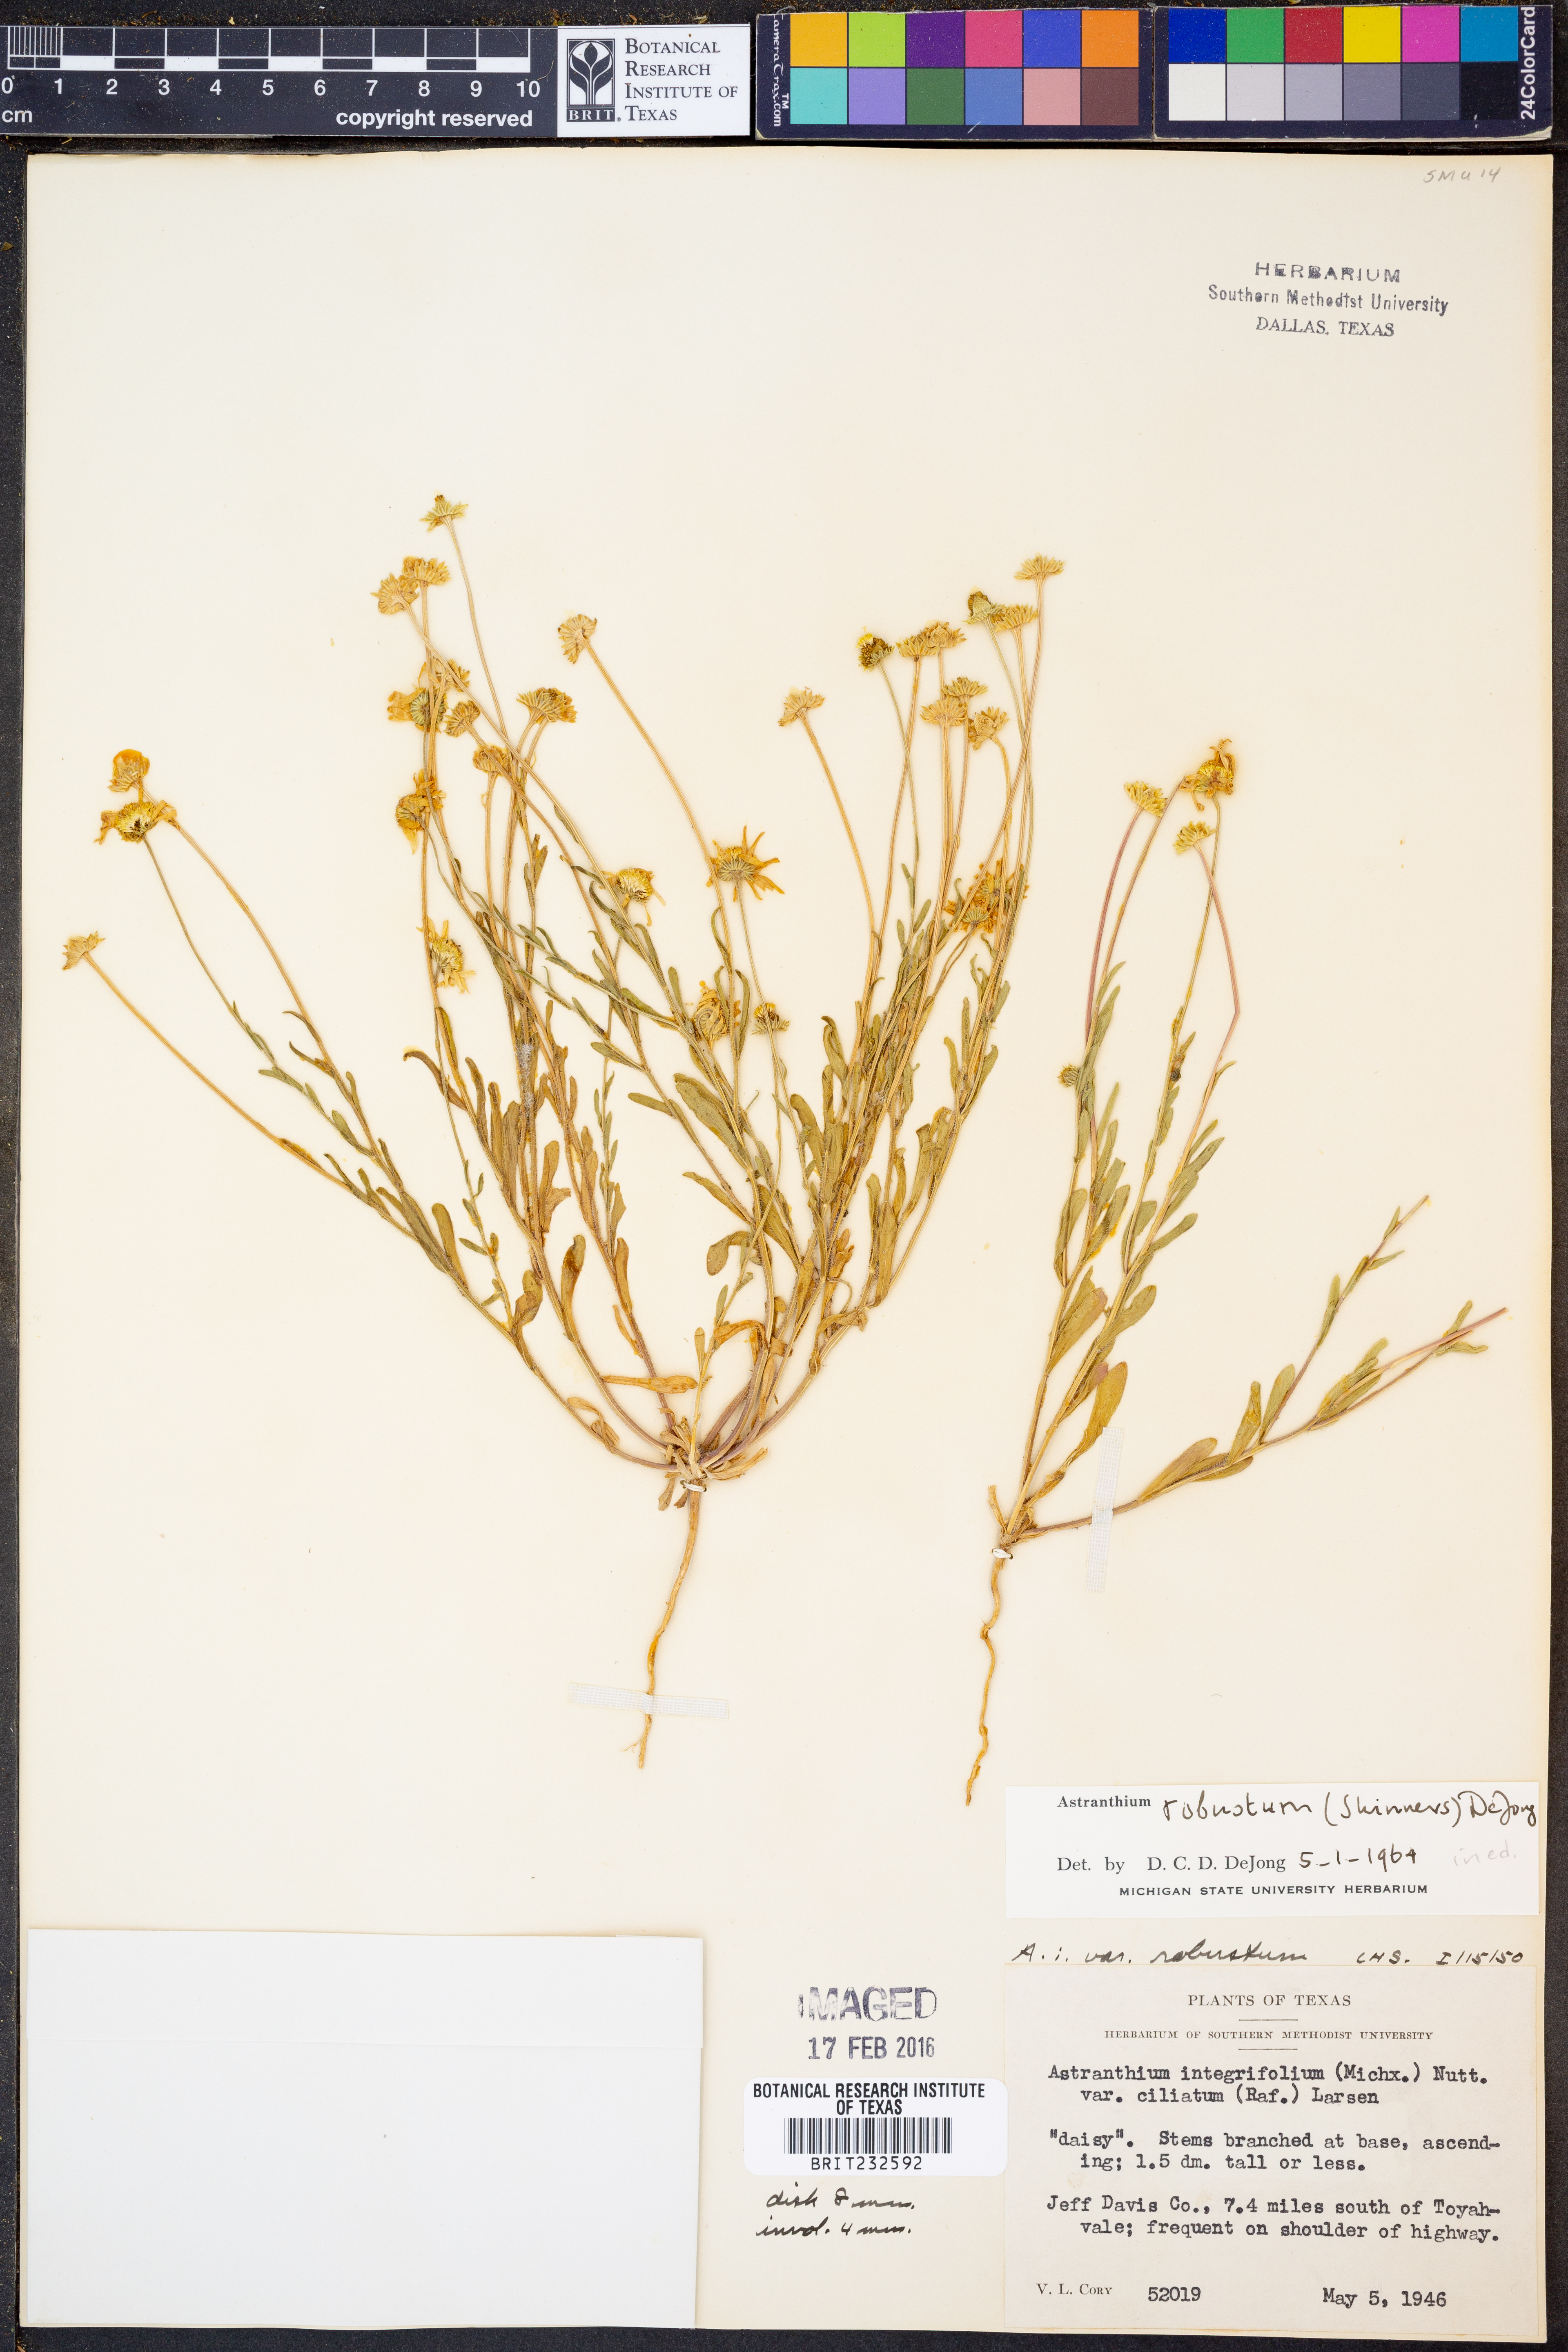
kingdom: Plantae
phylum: Tracheophyta
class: Magnoliopsida
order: Asterales
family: Asteraceae
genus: Astranthium
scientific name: Astranthium robustum
